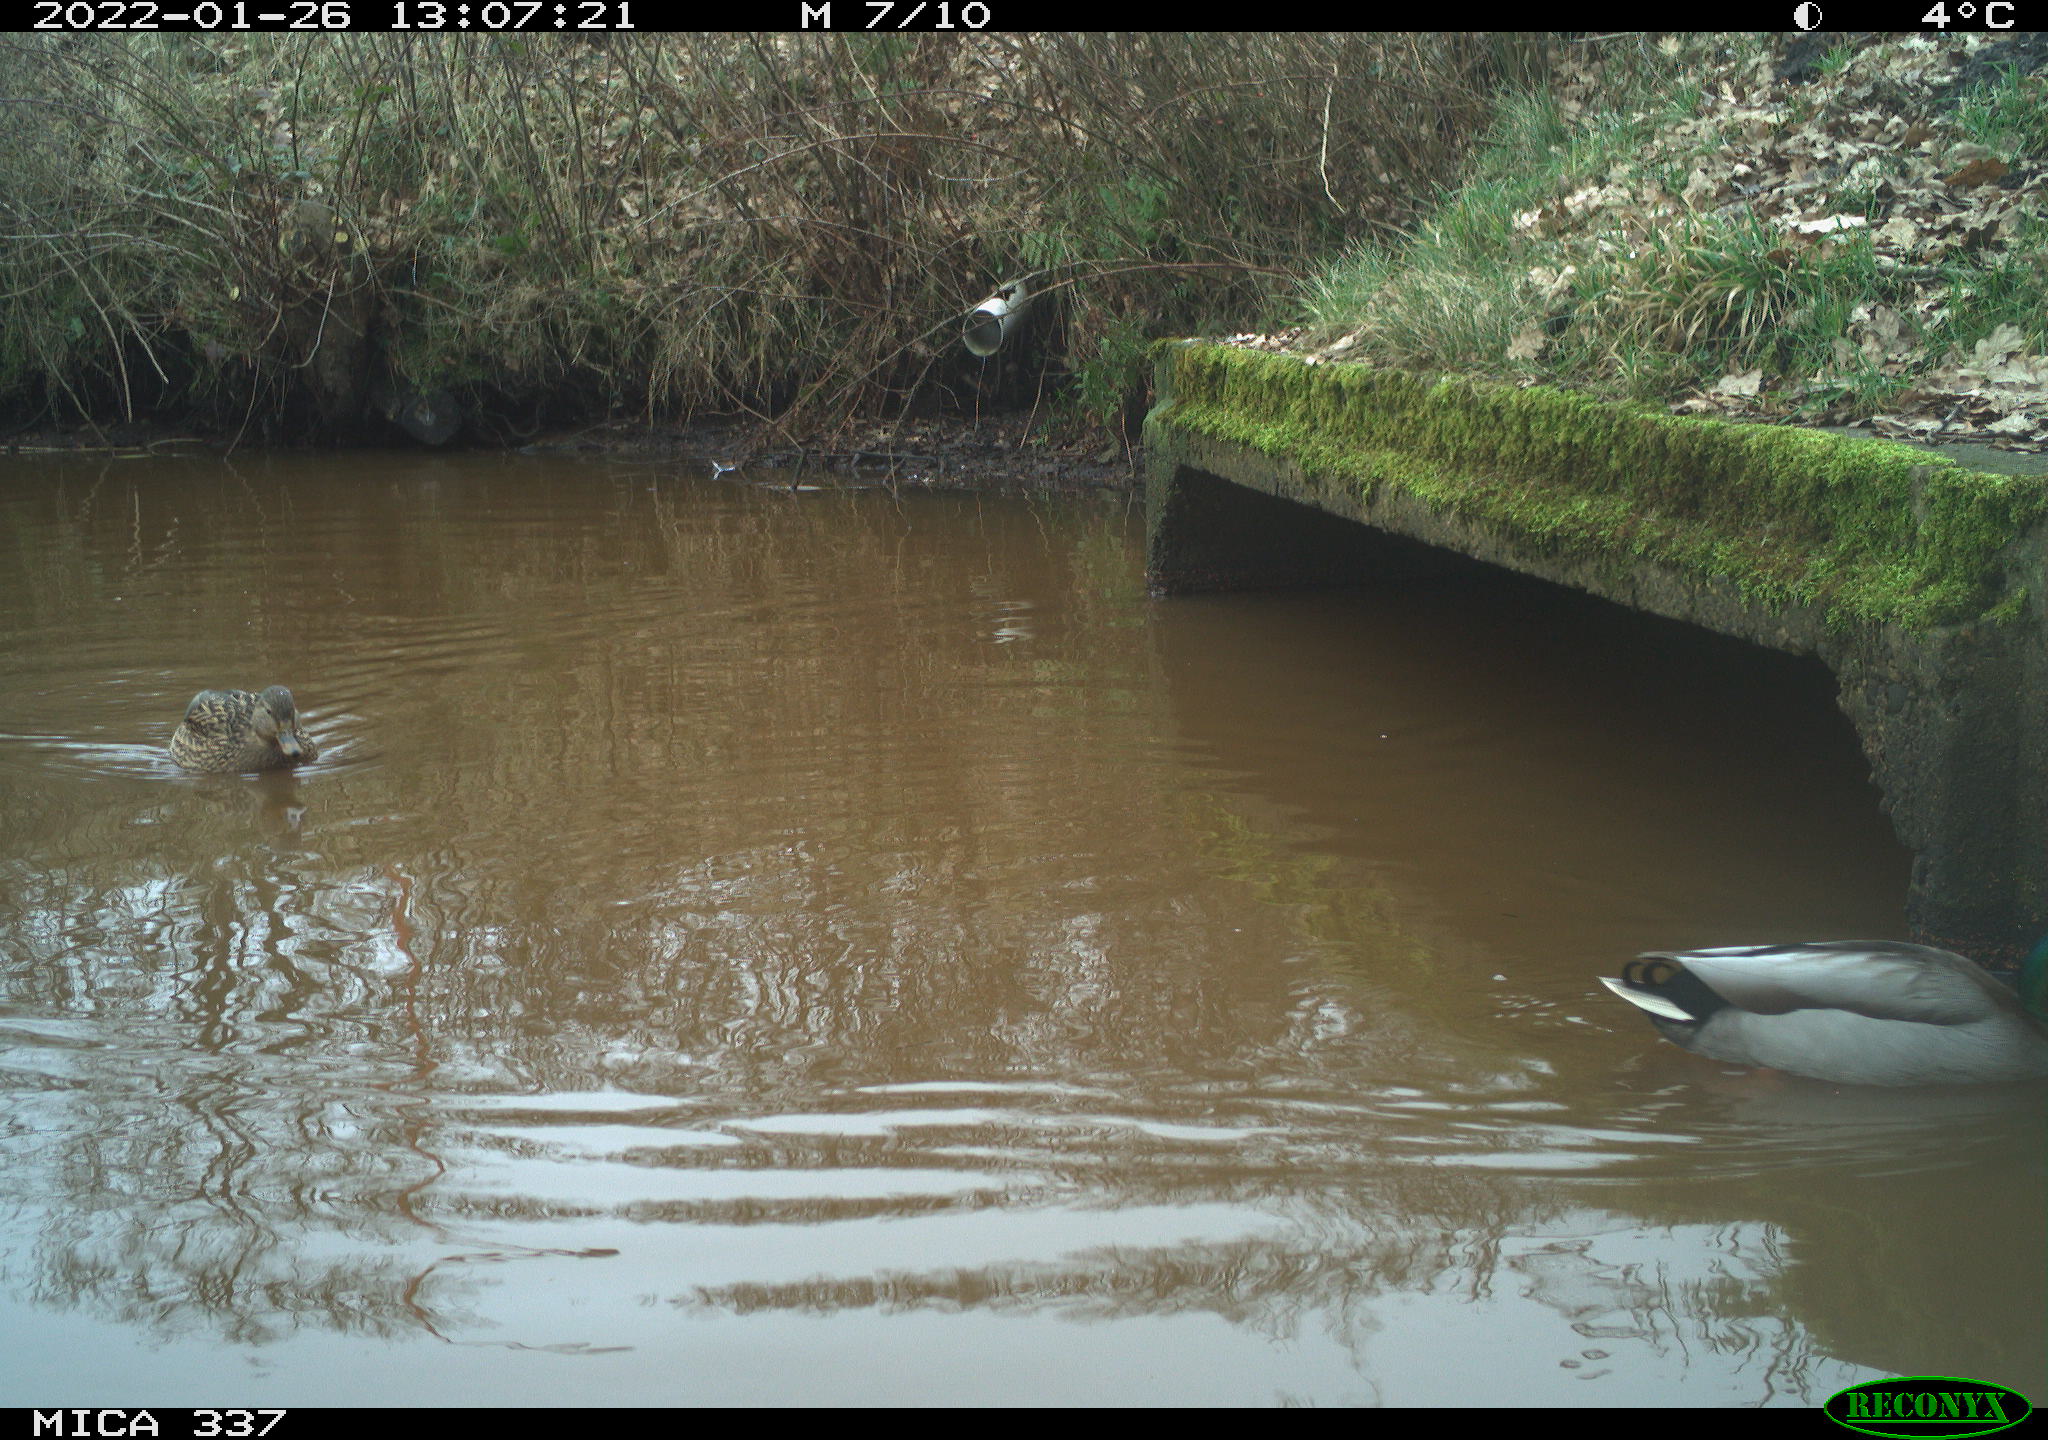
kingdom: Animalia
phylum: Chordata
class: Aves
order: Anseriformes
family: Anatidae
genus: Anas
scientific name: Anas platyrhynchos
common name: Mallard
